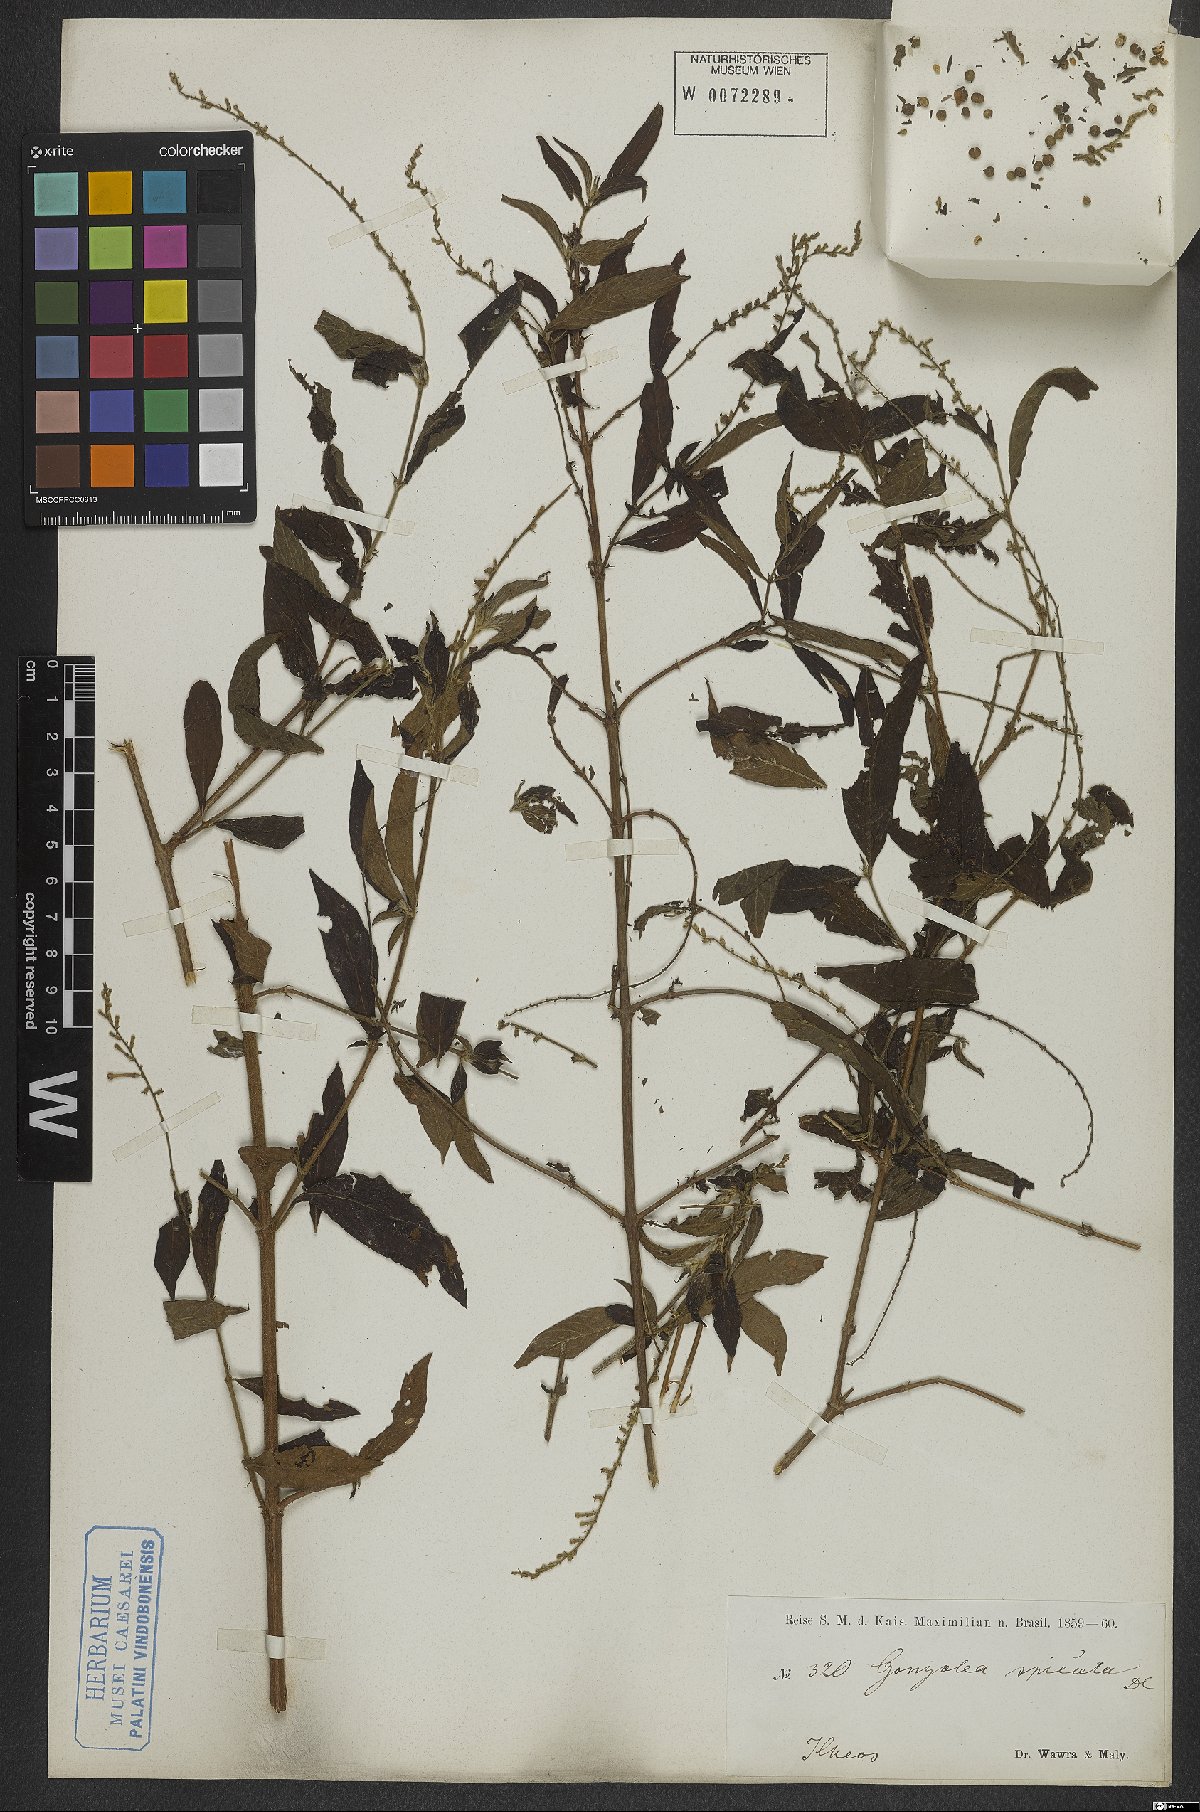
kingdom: Plantae
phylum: Tracheophyta
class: Magnoliopsida
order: Gentianales
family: Rubiaceae
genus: Gonzalagunia
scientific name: Gonzalagunia hirsuta
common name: Mata de mariposa
